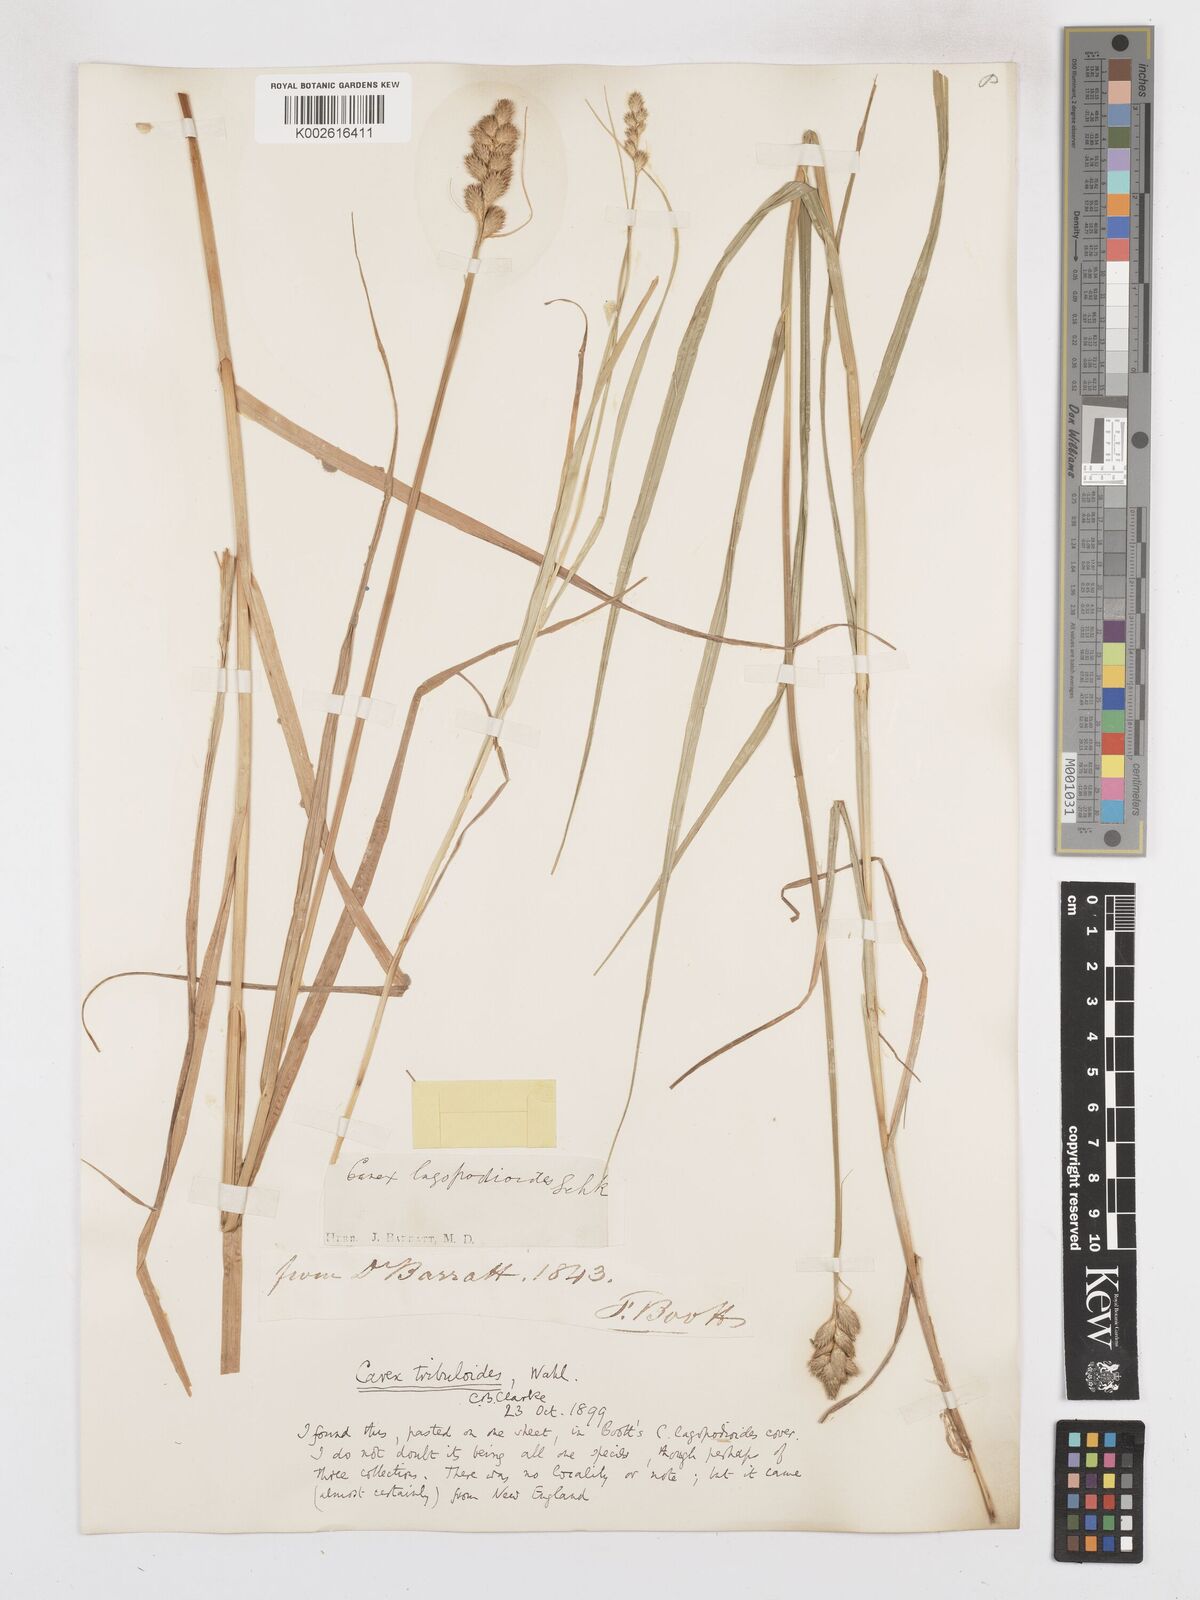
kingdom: Plantae
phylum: Tracheophyta
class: Liliopsida
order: Poales
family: Cyperaceae
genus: Carex
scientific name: Carex tribuloides
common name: Blunt broom sedge
